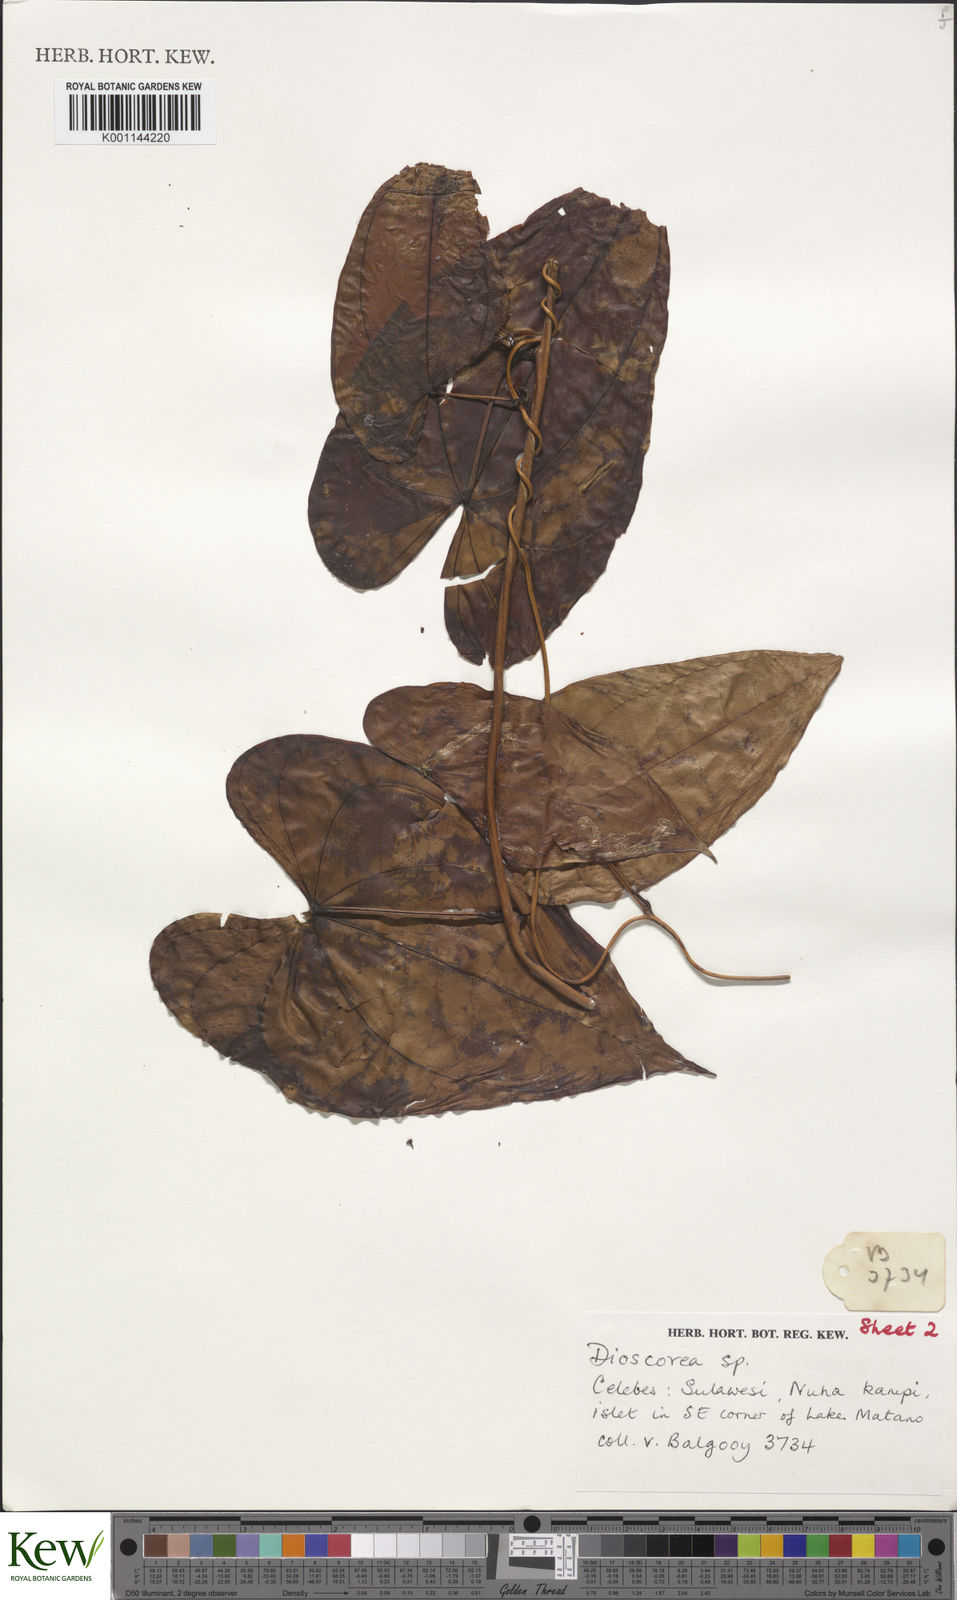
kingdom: Plantae
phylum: Tracheophyta
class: Liliopsida
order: Dioscoreales
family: Dioscoreaceae
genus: Dioscorea
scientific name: Dioscorea keduensis
